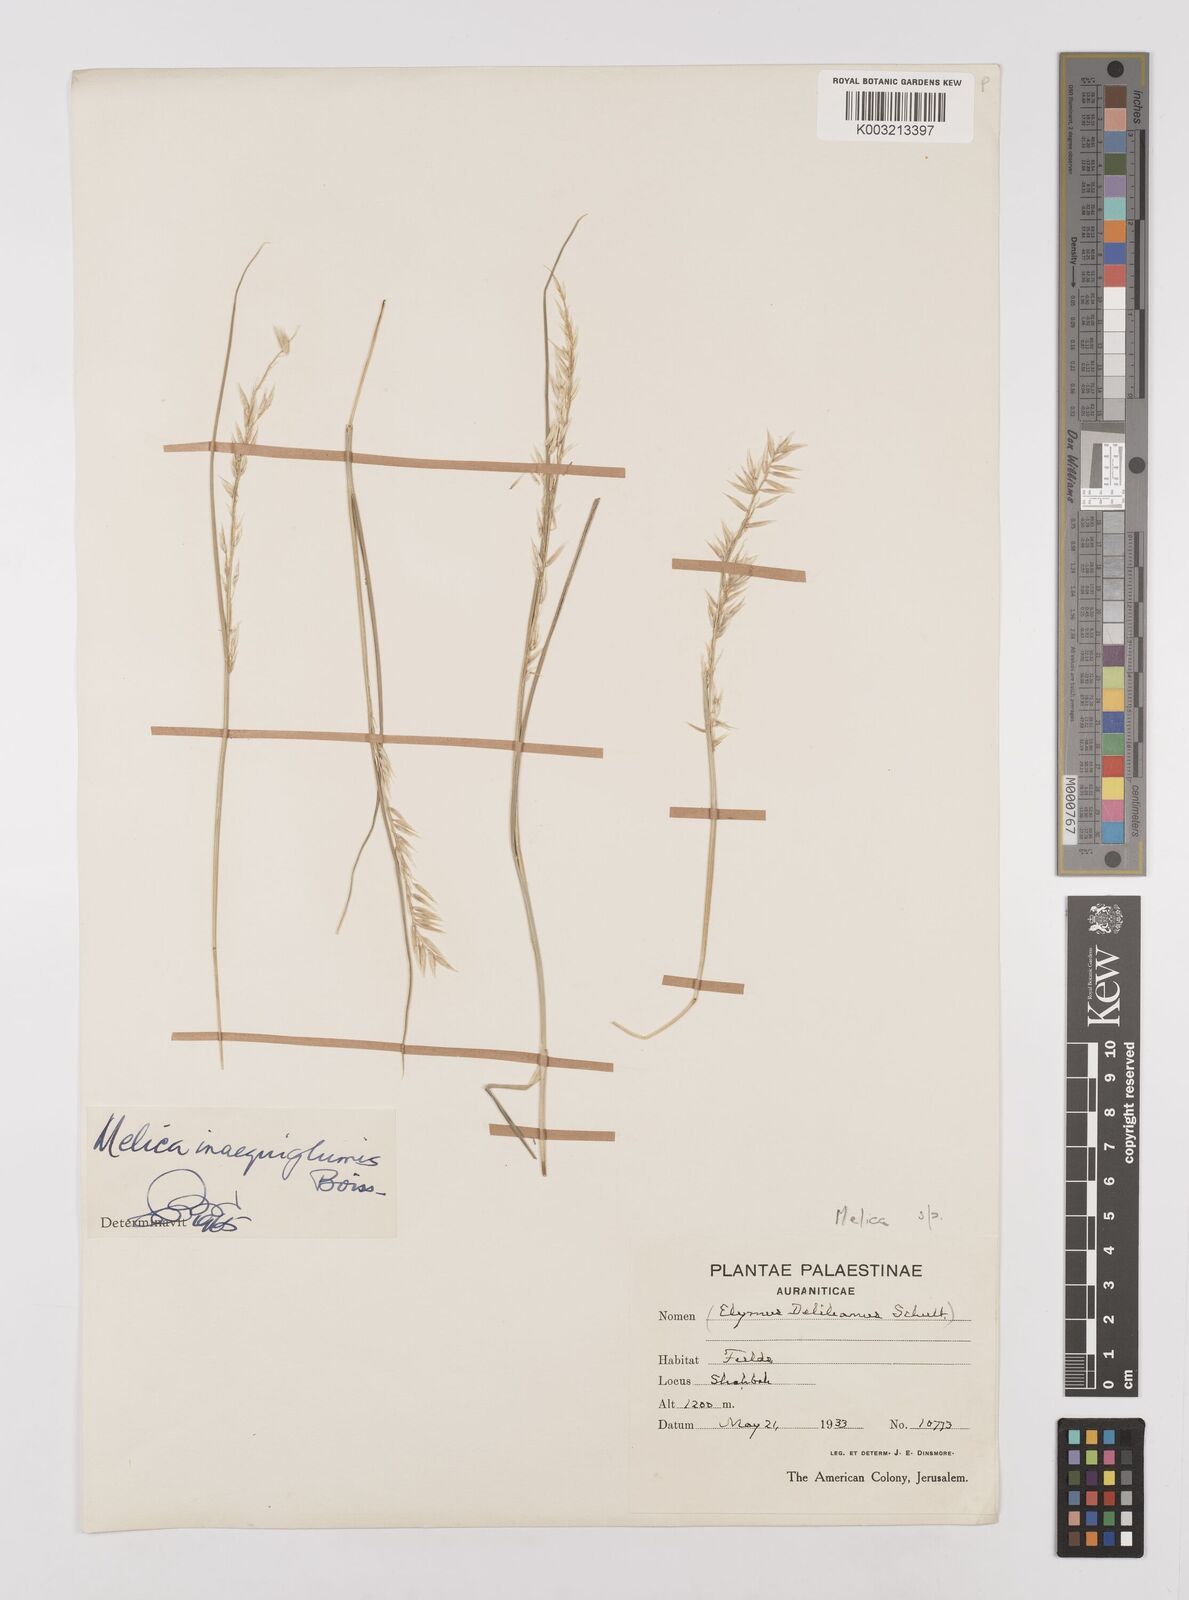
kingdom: Plantae
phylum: Tracheophyta
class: Liliopsida
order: Poales
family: Poaceae
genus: Melica
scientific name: Melica persica
